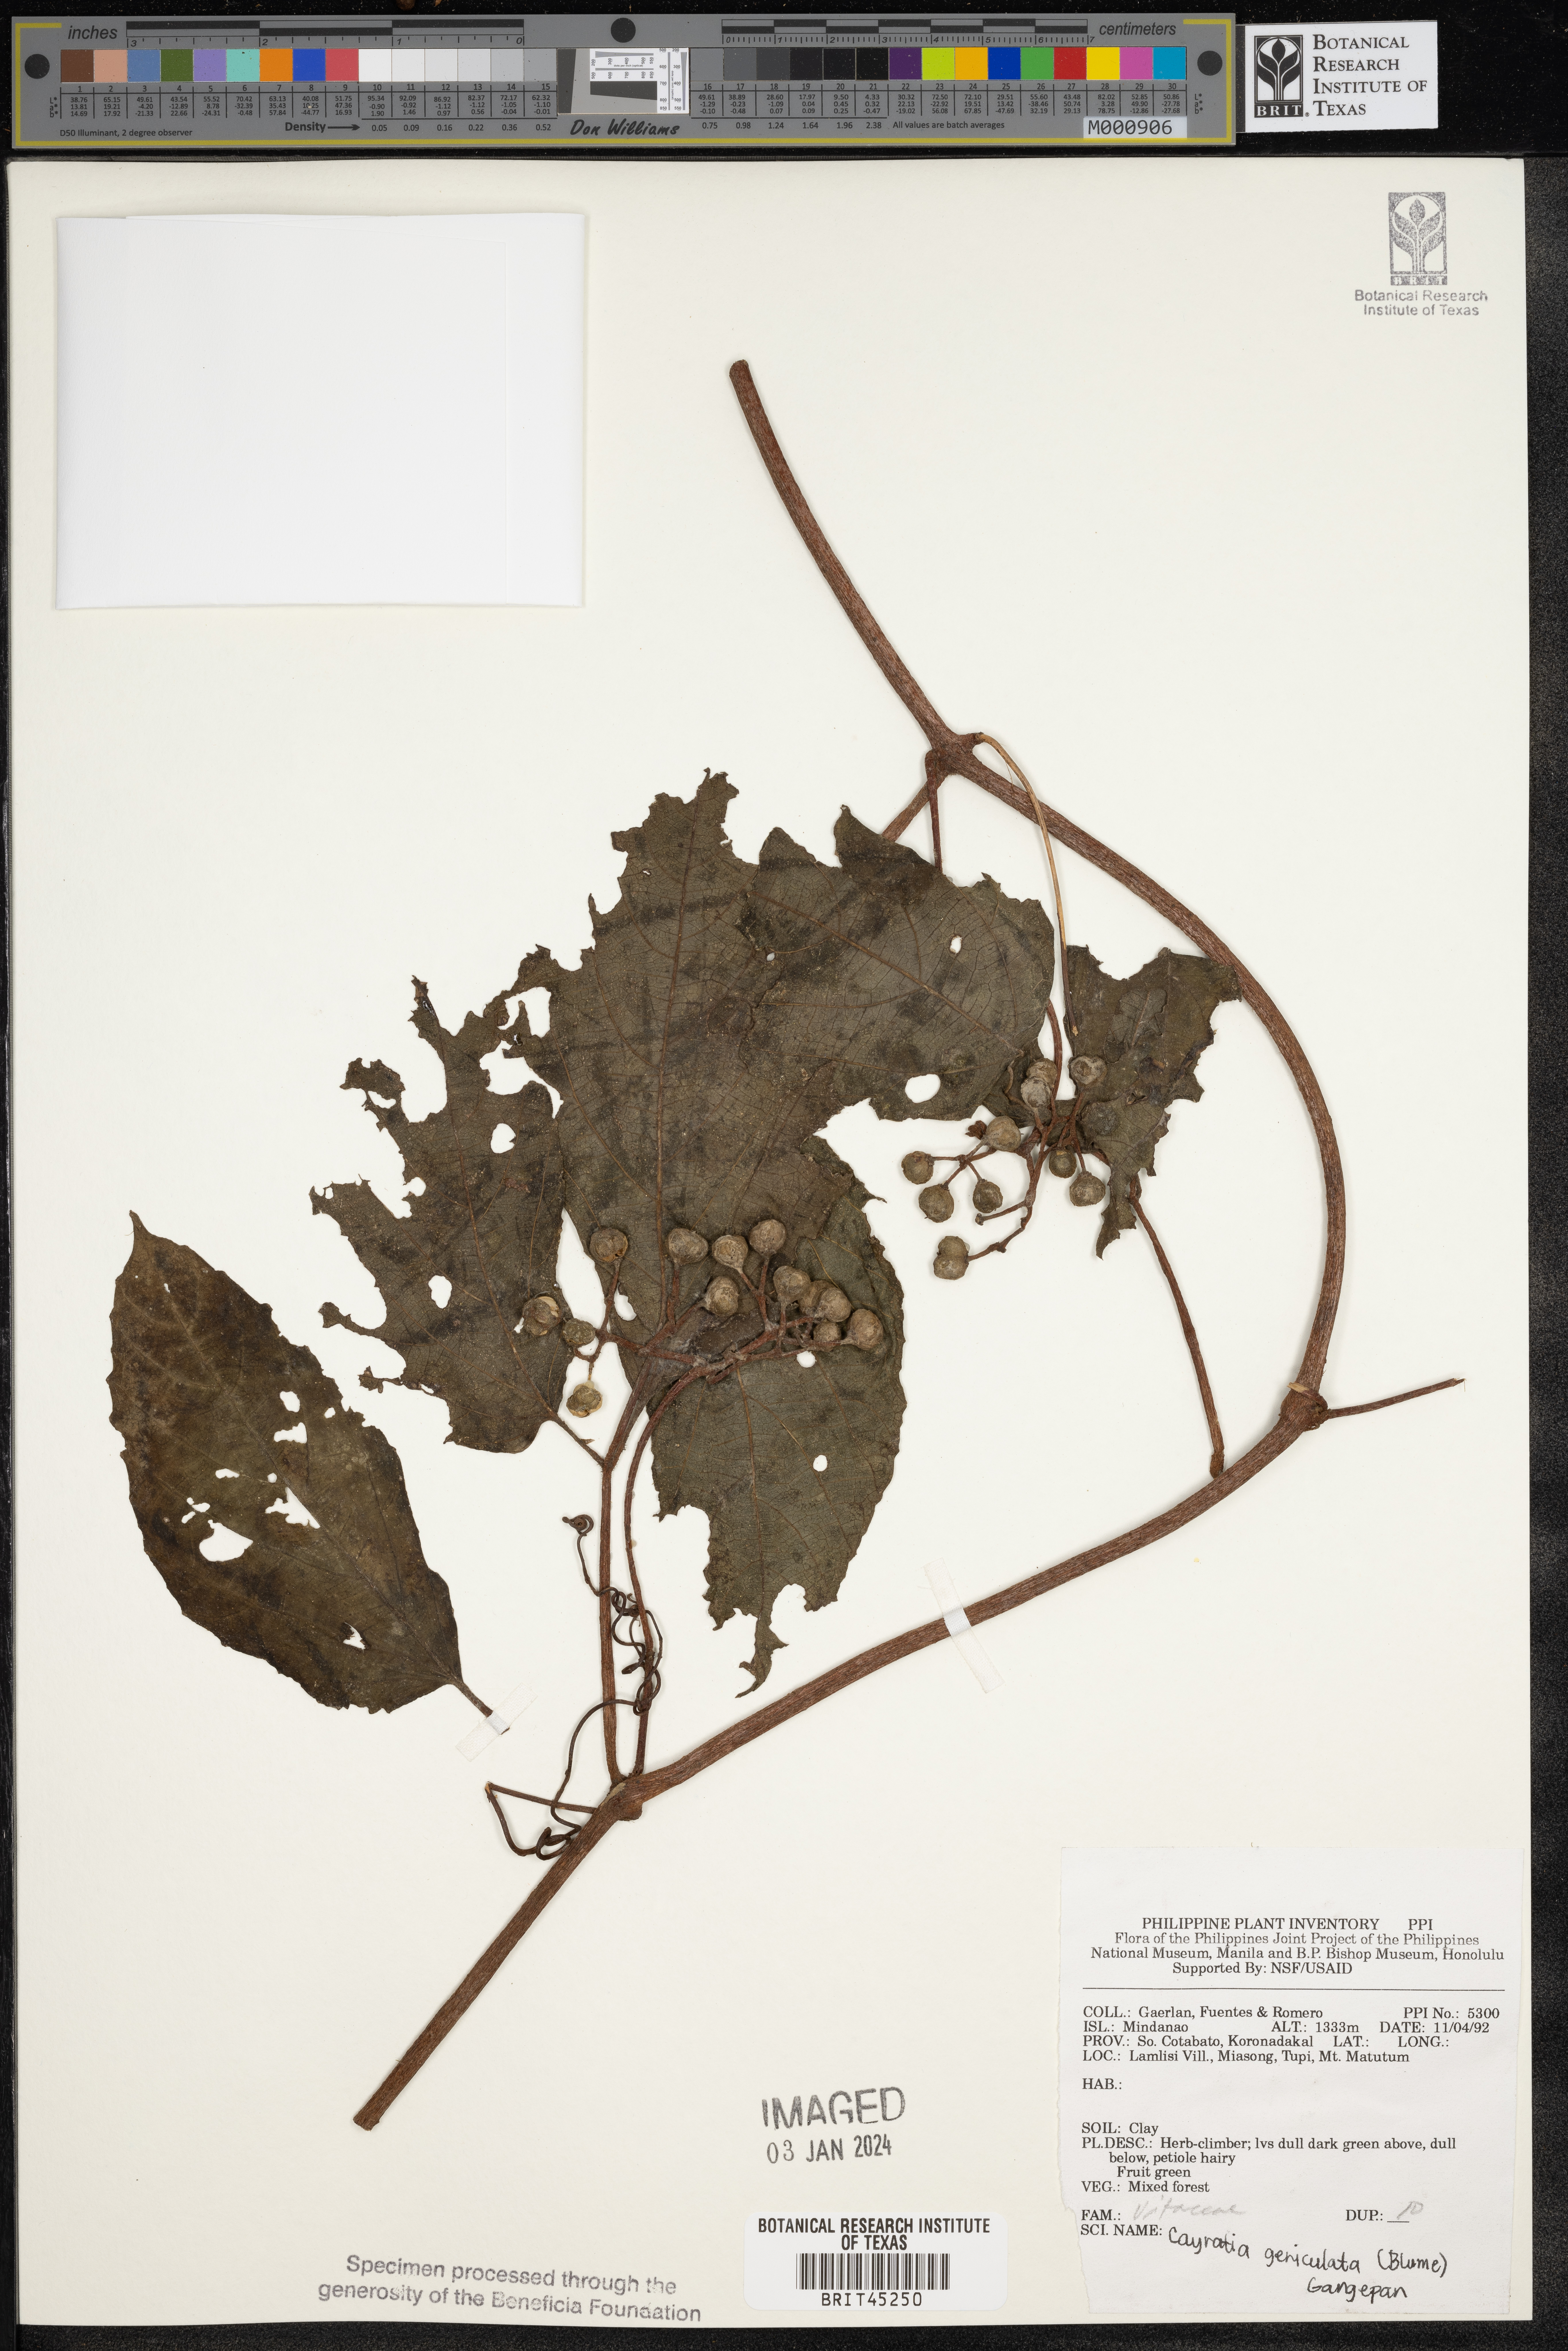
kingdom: Plantae
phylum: Tracheophyta
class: Magnoliopsida
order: Vitales
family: Vitaceae
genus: Cayratia
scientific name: Cayratia mollissima
